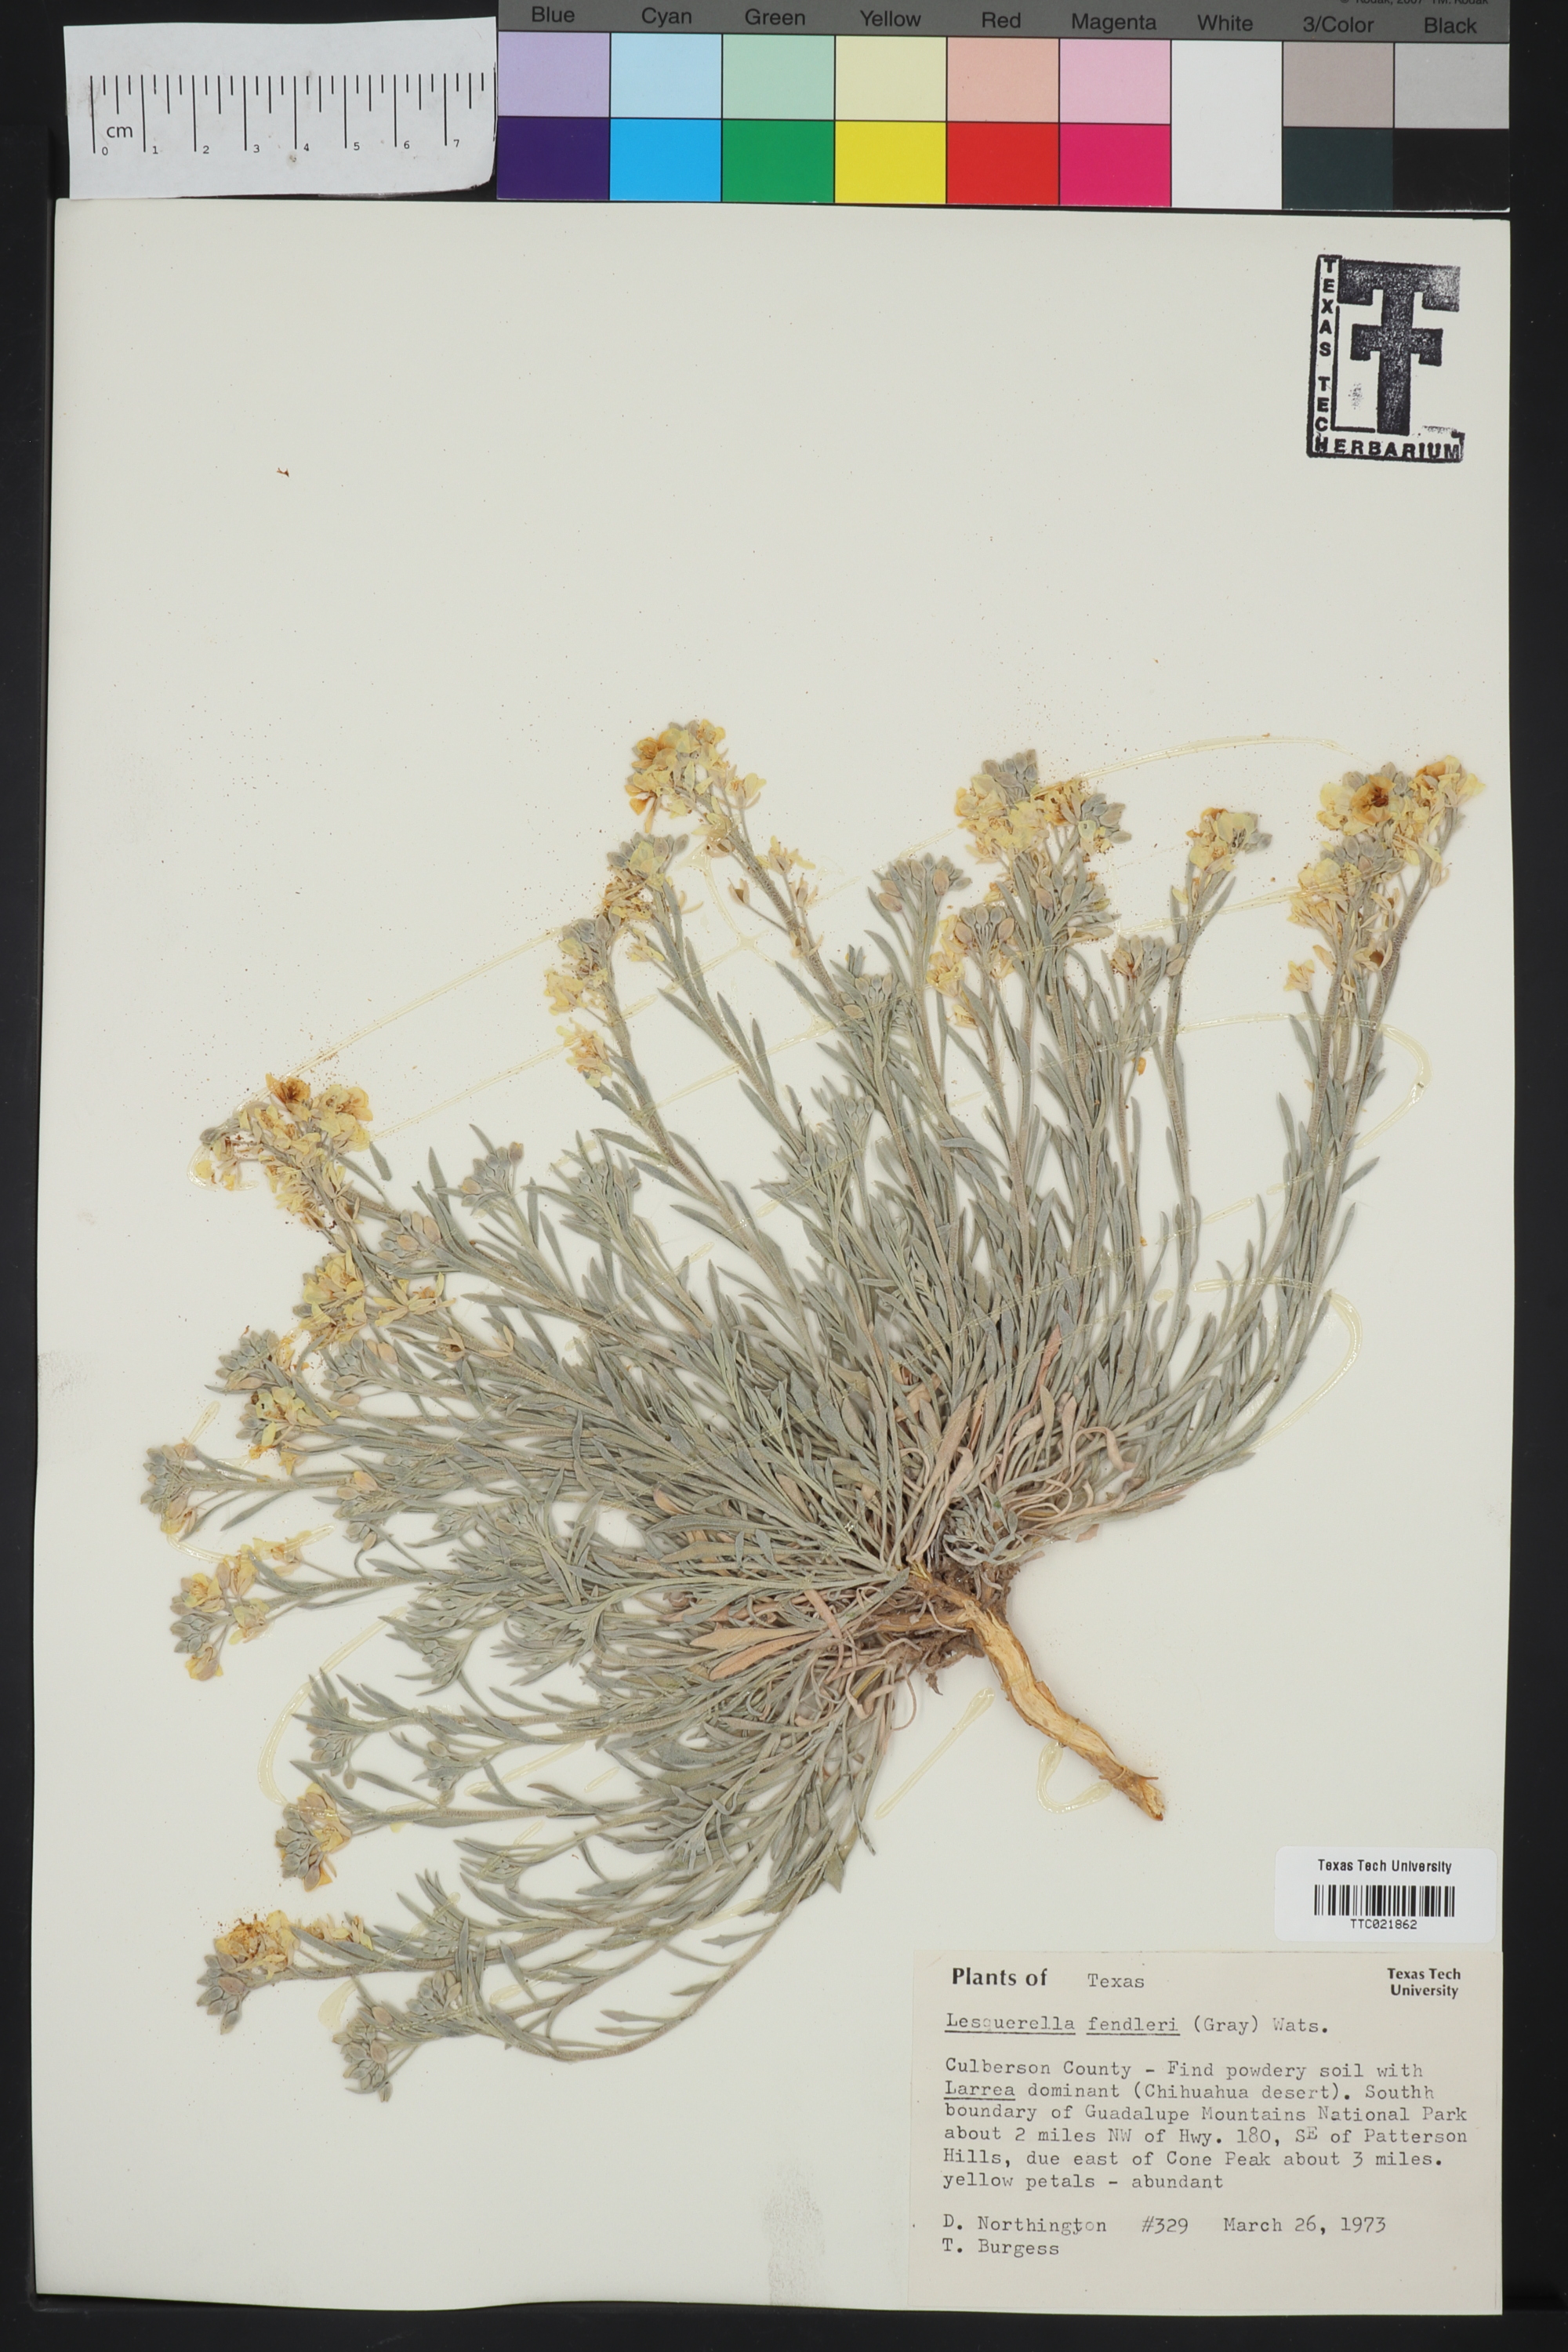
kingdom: Plantae
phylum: Tracheophyta
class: Magnoliopsida
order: Brassicales
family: Brassicaceae
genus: Physaria
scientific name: Physaria fendleri
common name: Fendler's bladderpod
